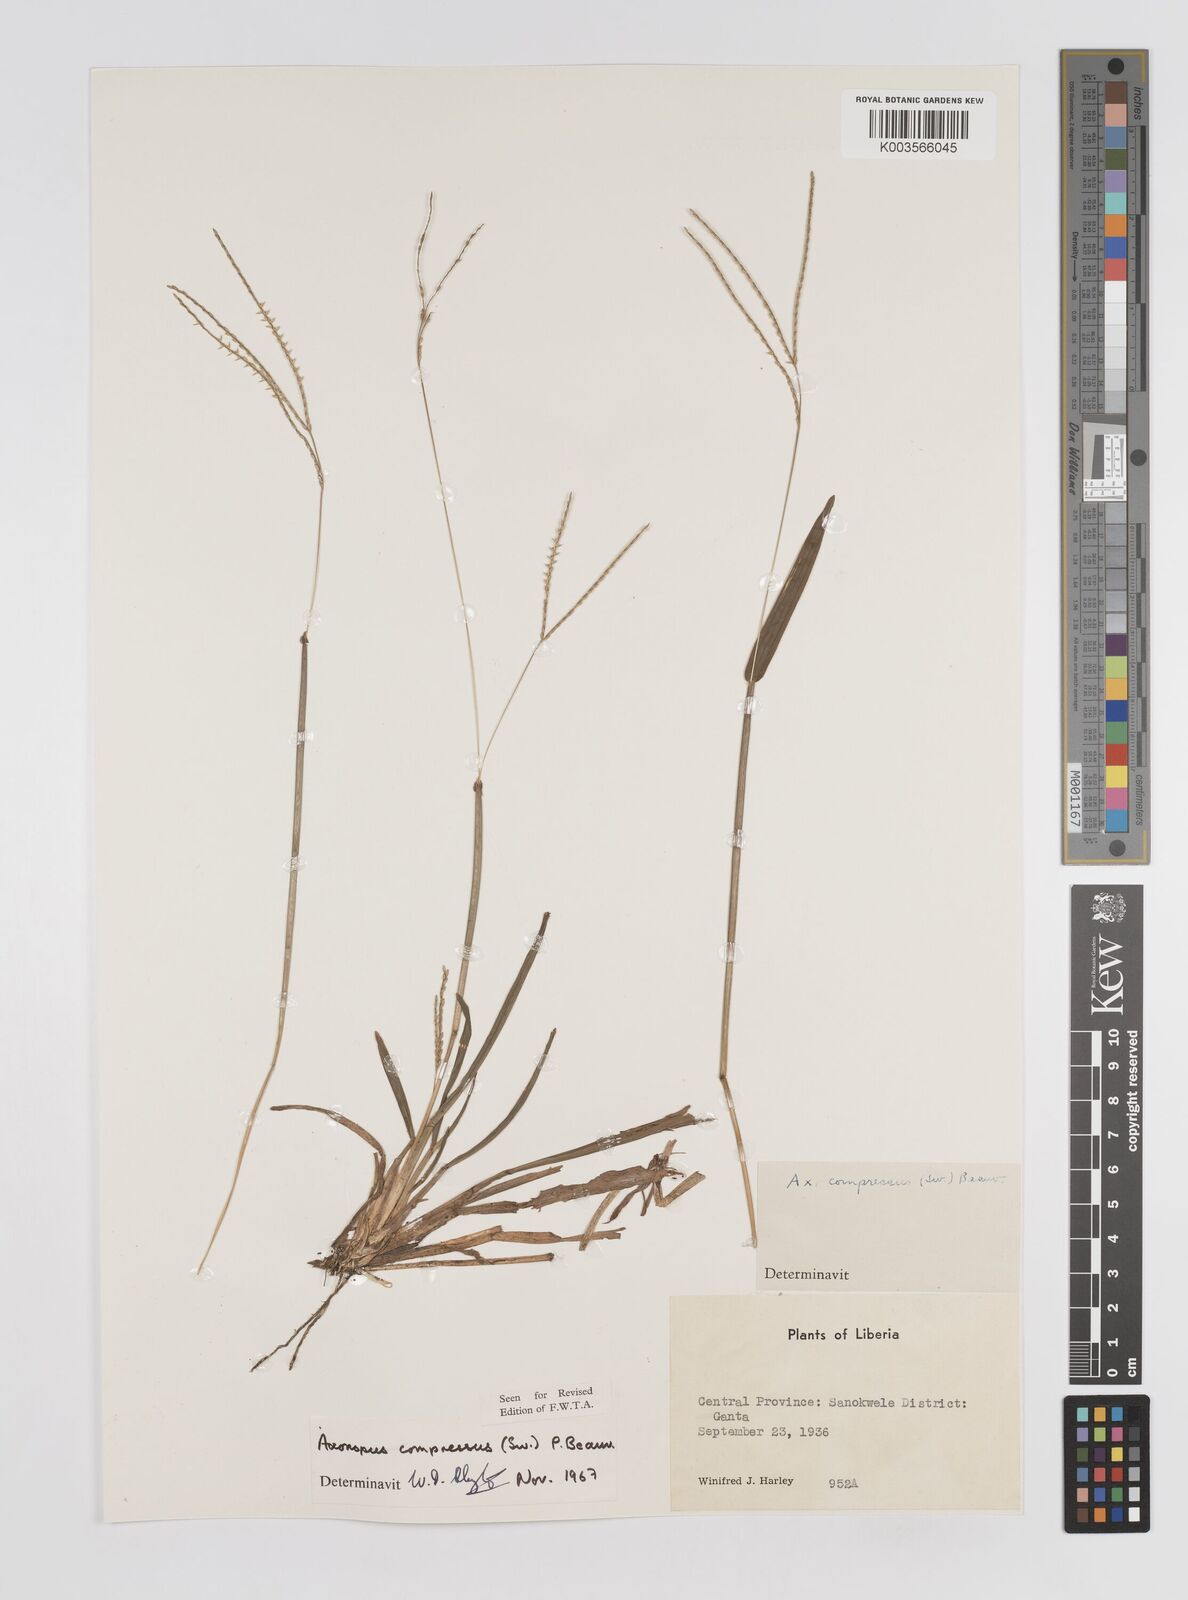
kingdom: Plantae
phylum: Tracheophyta
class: Liliopsida
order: Poales
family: Poaceae
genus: Axonopus
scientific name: Axonopus compressus
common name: American carpet grass
